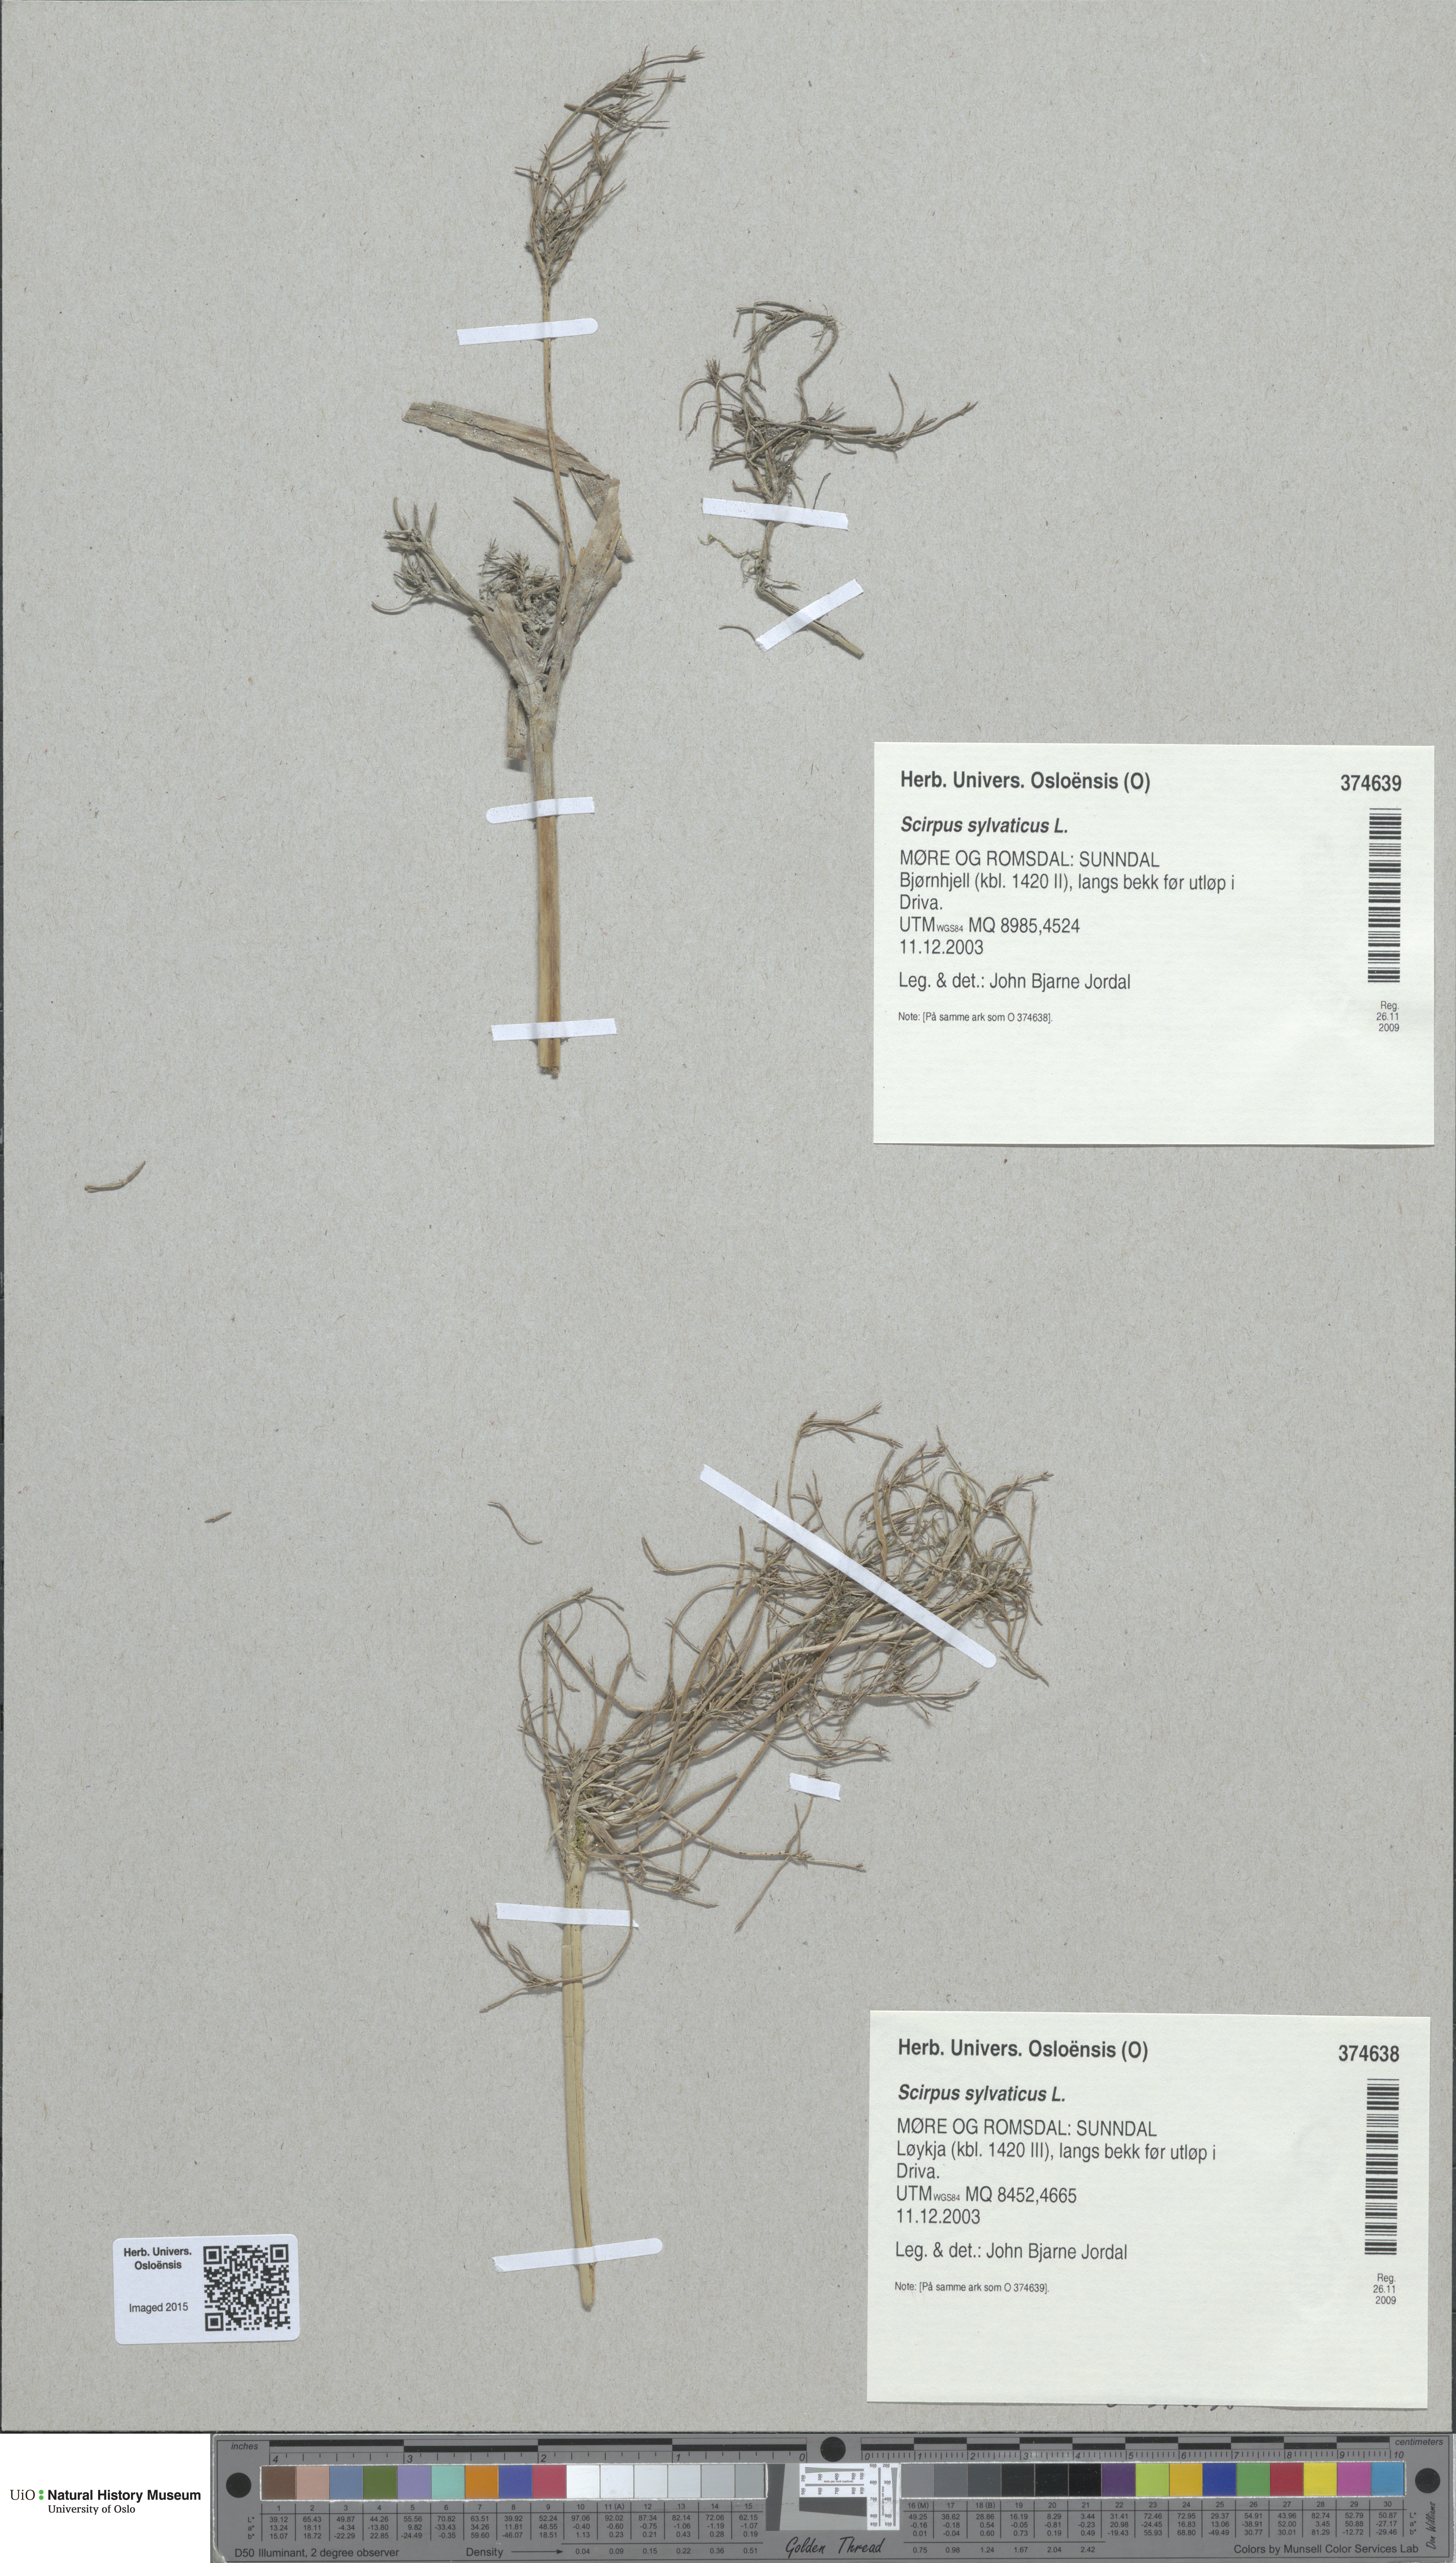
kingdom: Plantae
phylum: Tracheophyta
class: Liliopsida
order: Poales
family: Cyperaceae
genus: Scirpus
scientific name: Scirpus sylvaticus
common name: Wood club-rush
